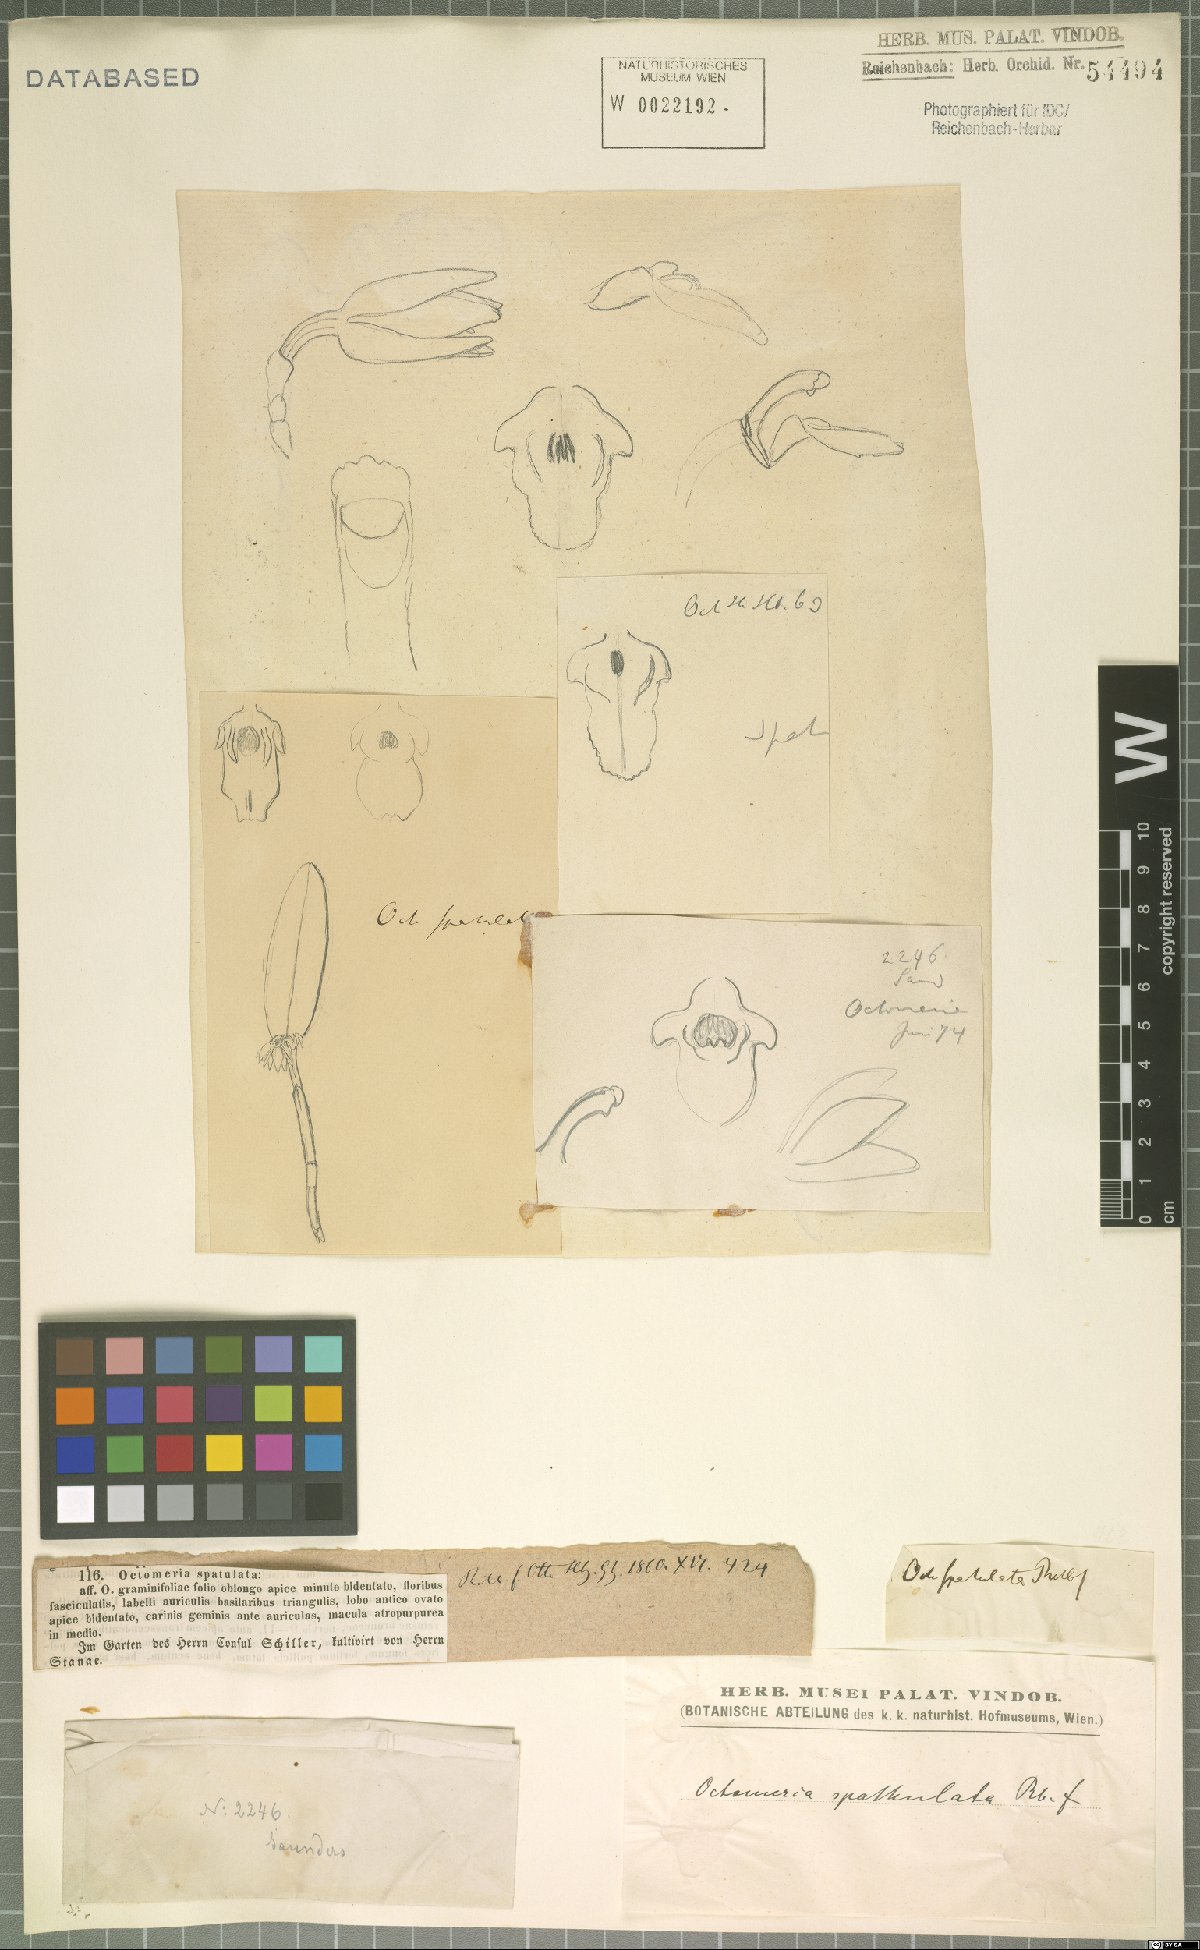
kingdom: Plantae
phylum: Tracheophyta
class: Liliopsida
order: Asparagales
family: Orchidaceae
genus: Octomeria
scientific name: Octomeria spatulata
